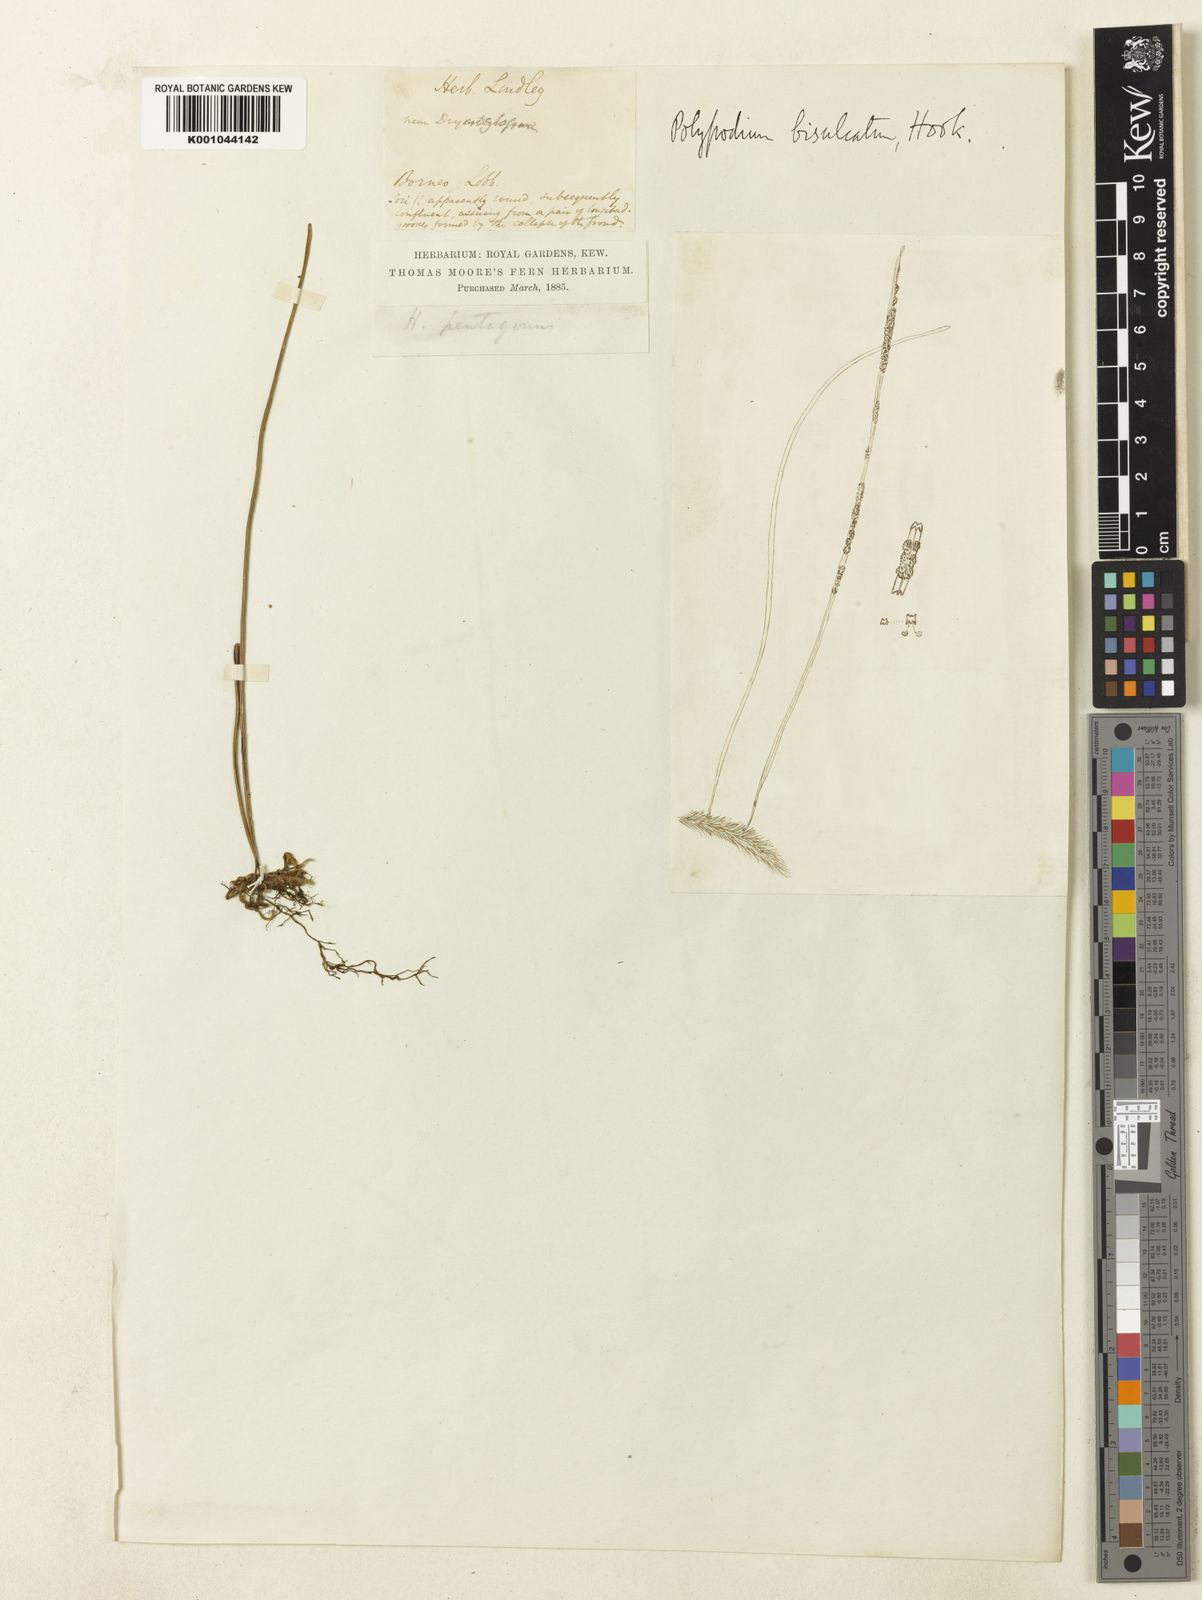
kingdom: Plantae
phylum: Tracheophyta
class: Polypodiopsida
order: Polypodiales
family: Polypodiaceae
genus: Selliguea
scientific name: Selliguea
